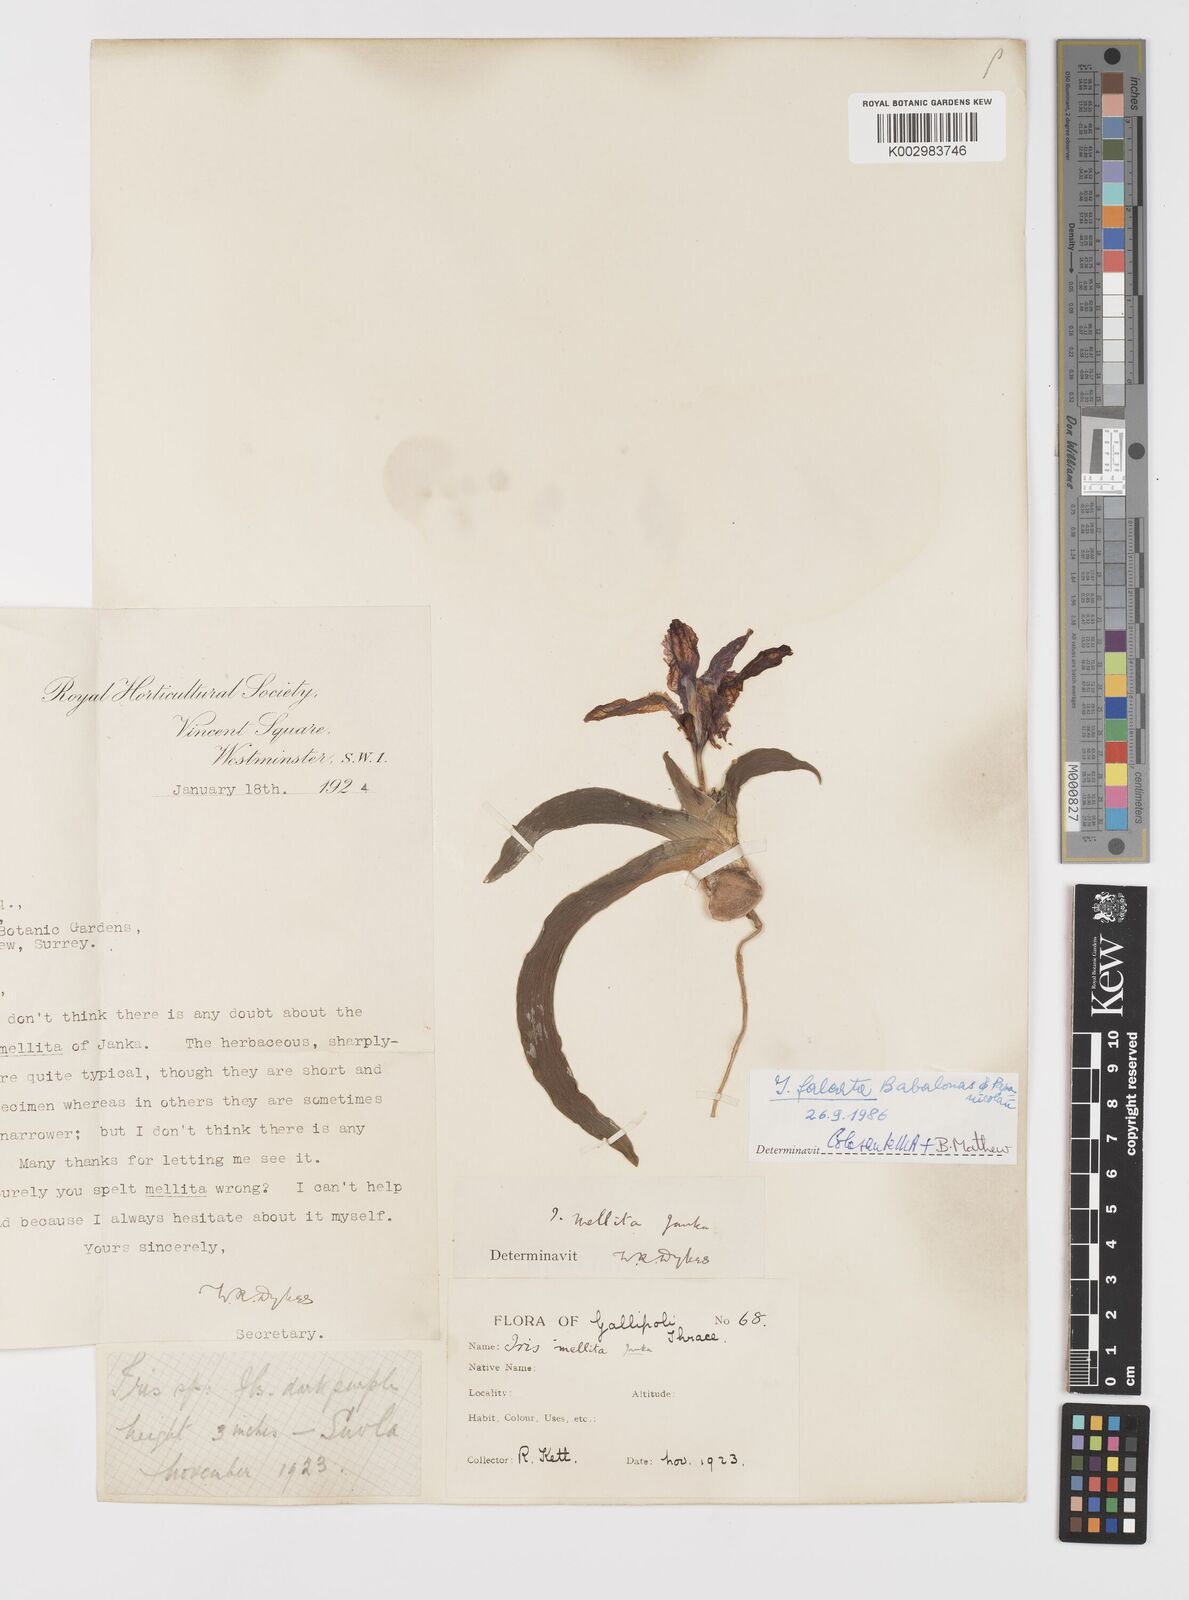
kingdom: Plantae
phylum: Tracheophyta
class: Liliopsida
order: Asparagales
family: Iridaceae
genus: Iris
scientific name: Iris suaveolens
